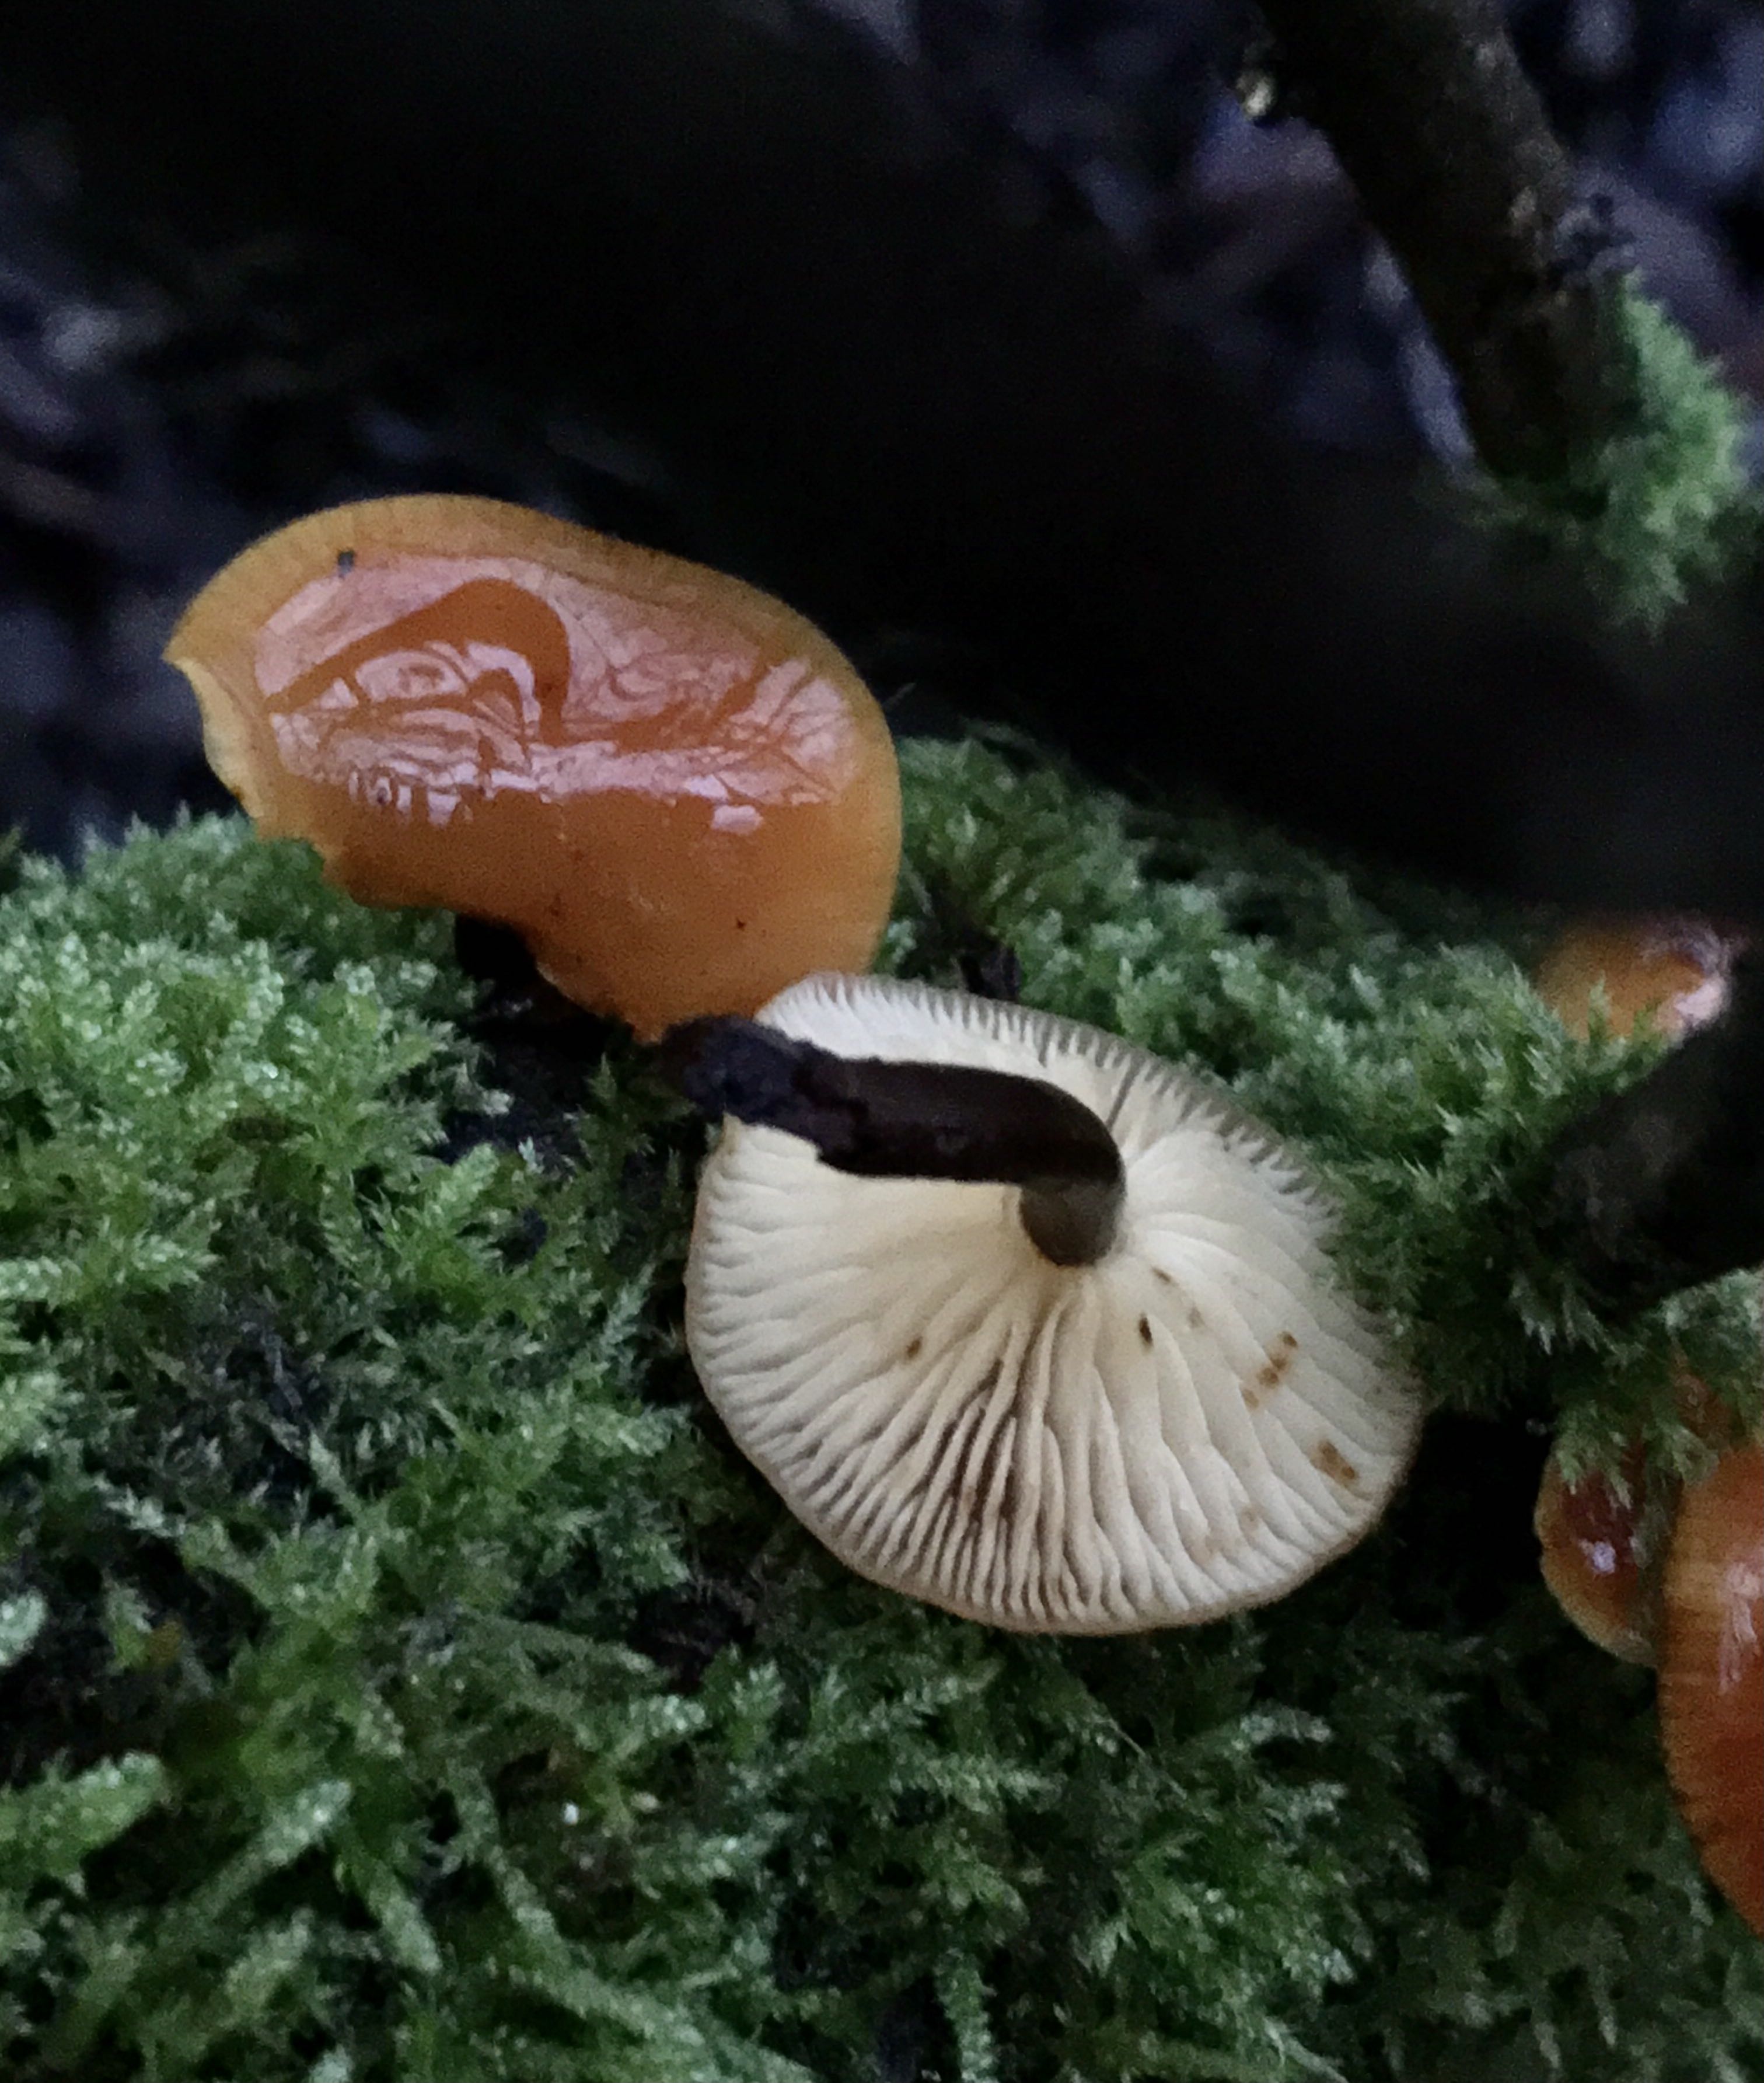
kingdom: Fungi
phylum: Basidiomycota
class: Agaricomycetes
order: Agaricales
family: Physalacriaceae
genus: Flammulina
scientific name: Flammulina
